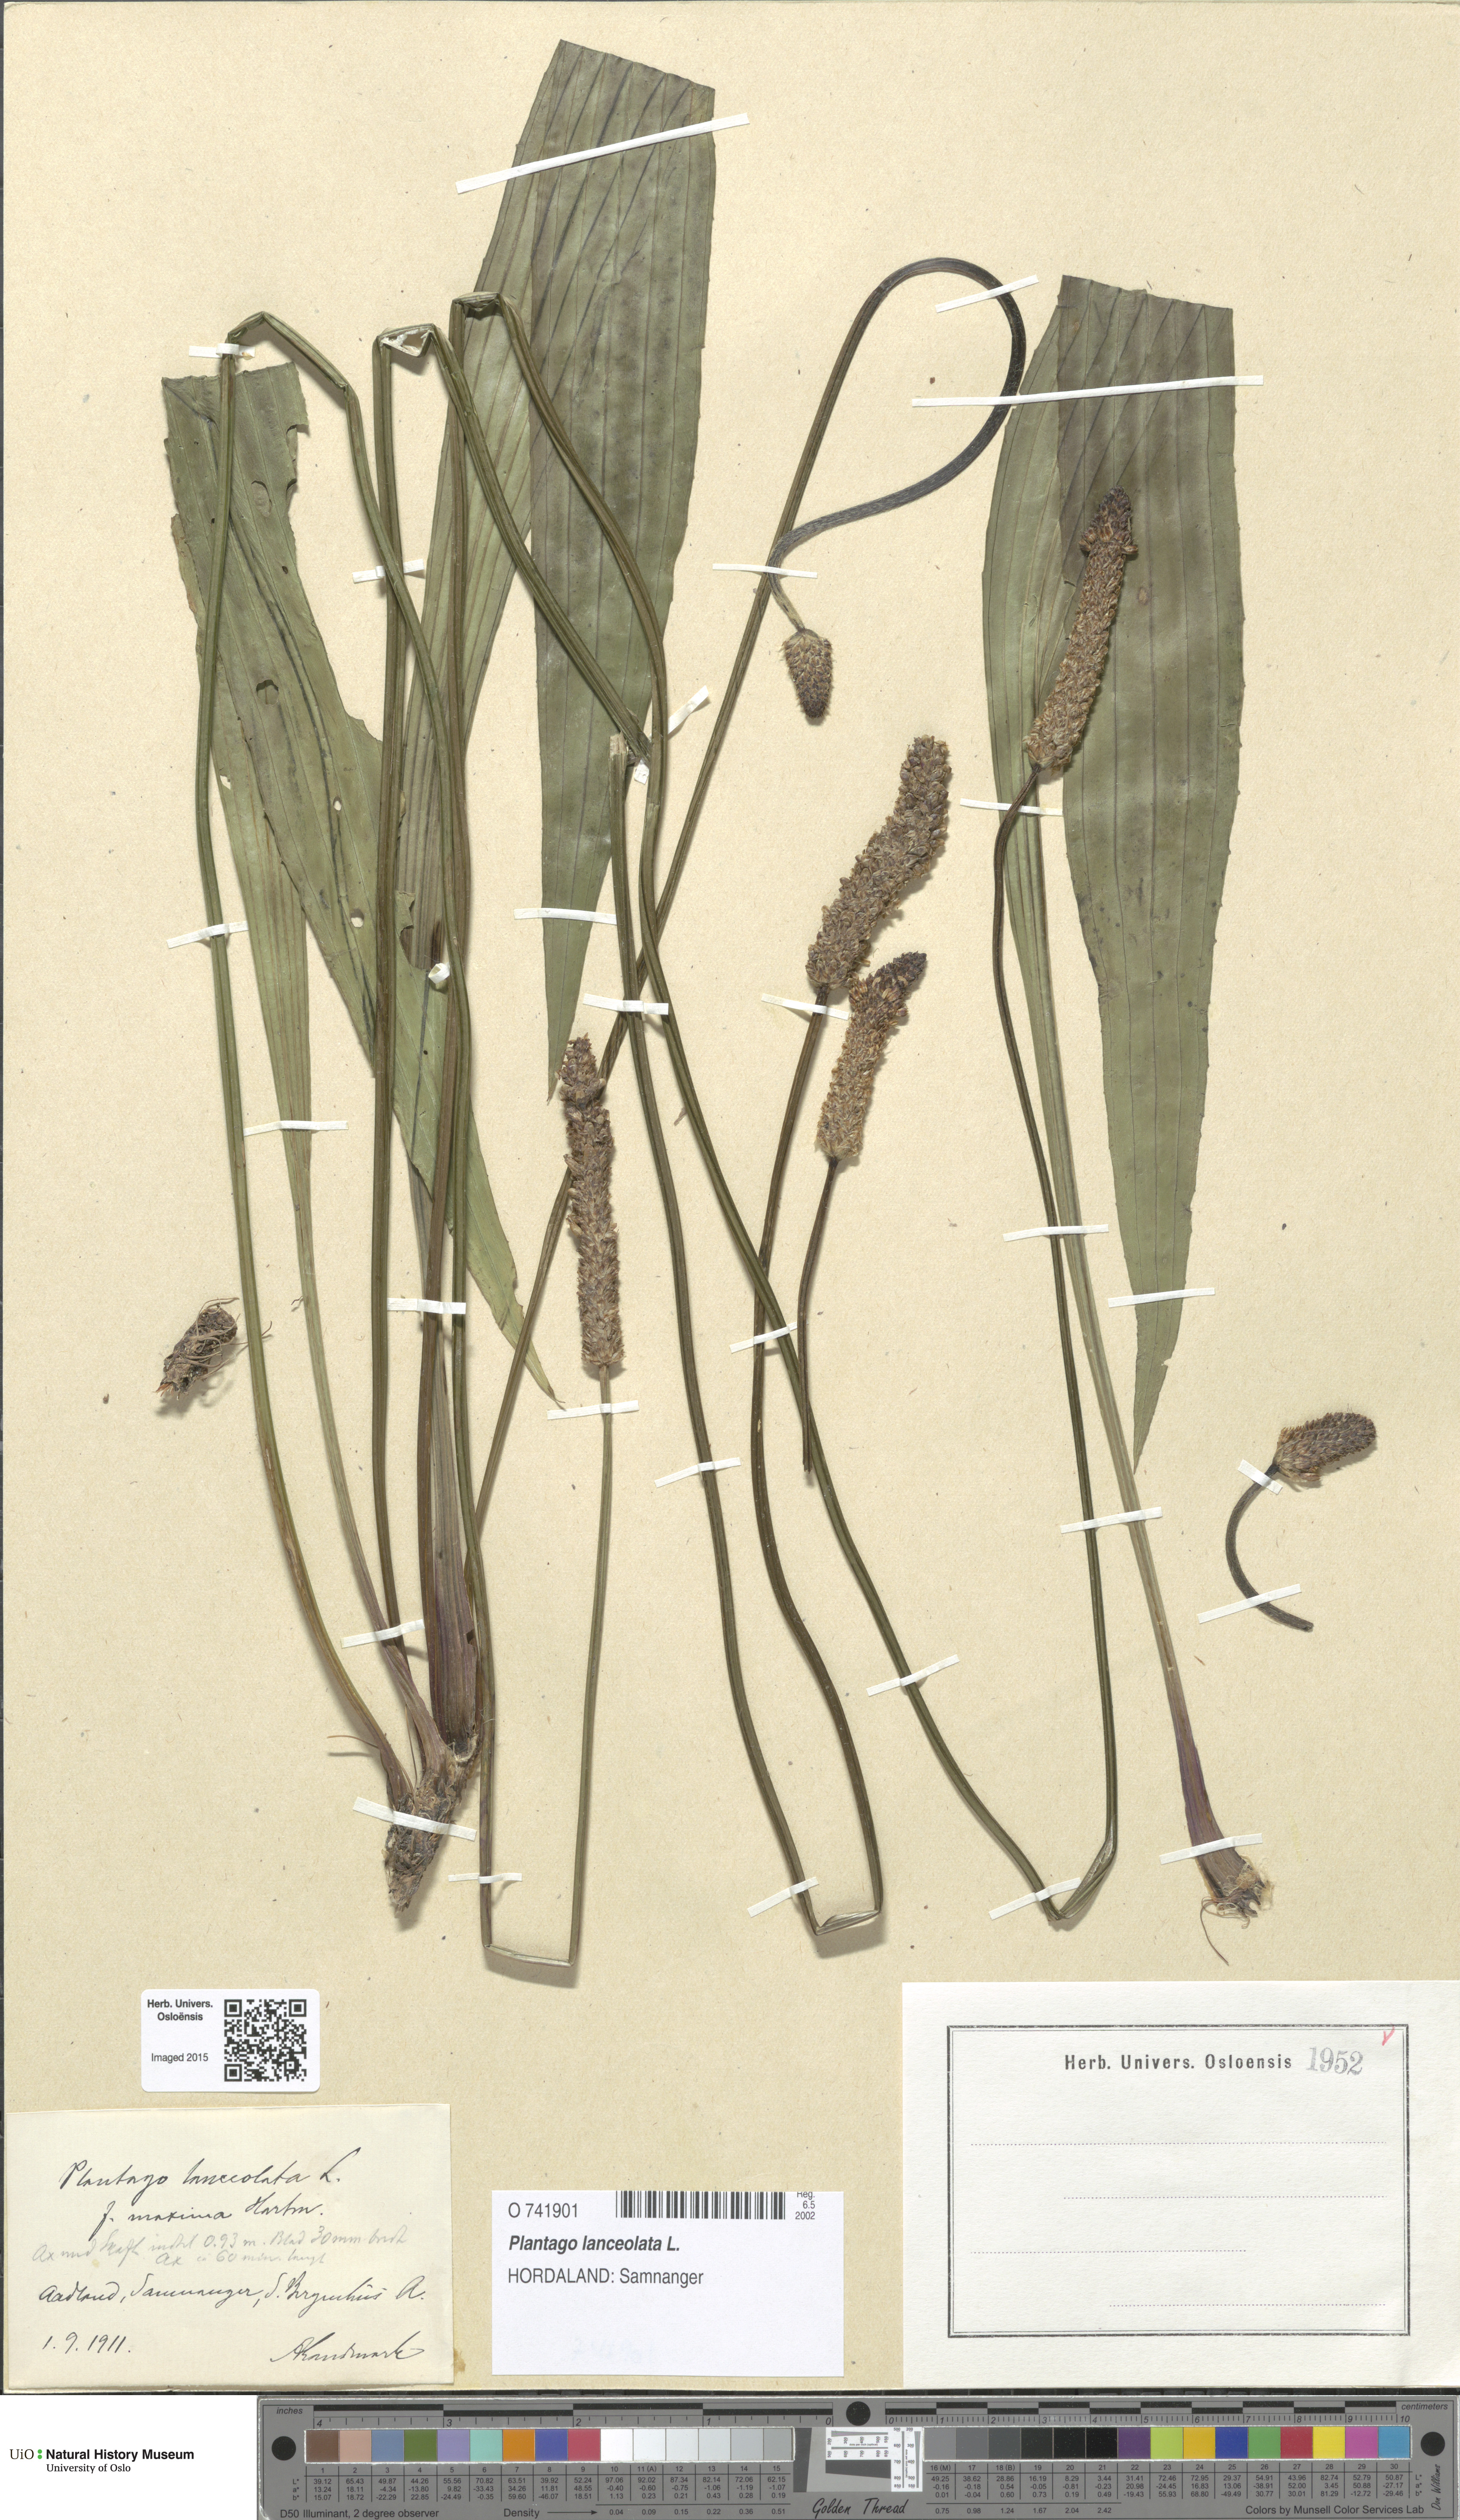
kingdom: Plantae
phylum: Tracheophyta
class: Magnoliopsida
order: Lamiales
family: Plantaginaceae
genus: Plantago
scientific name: Plantago lanceolata
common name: Ribwort plantain
